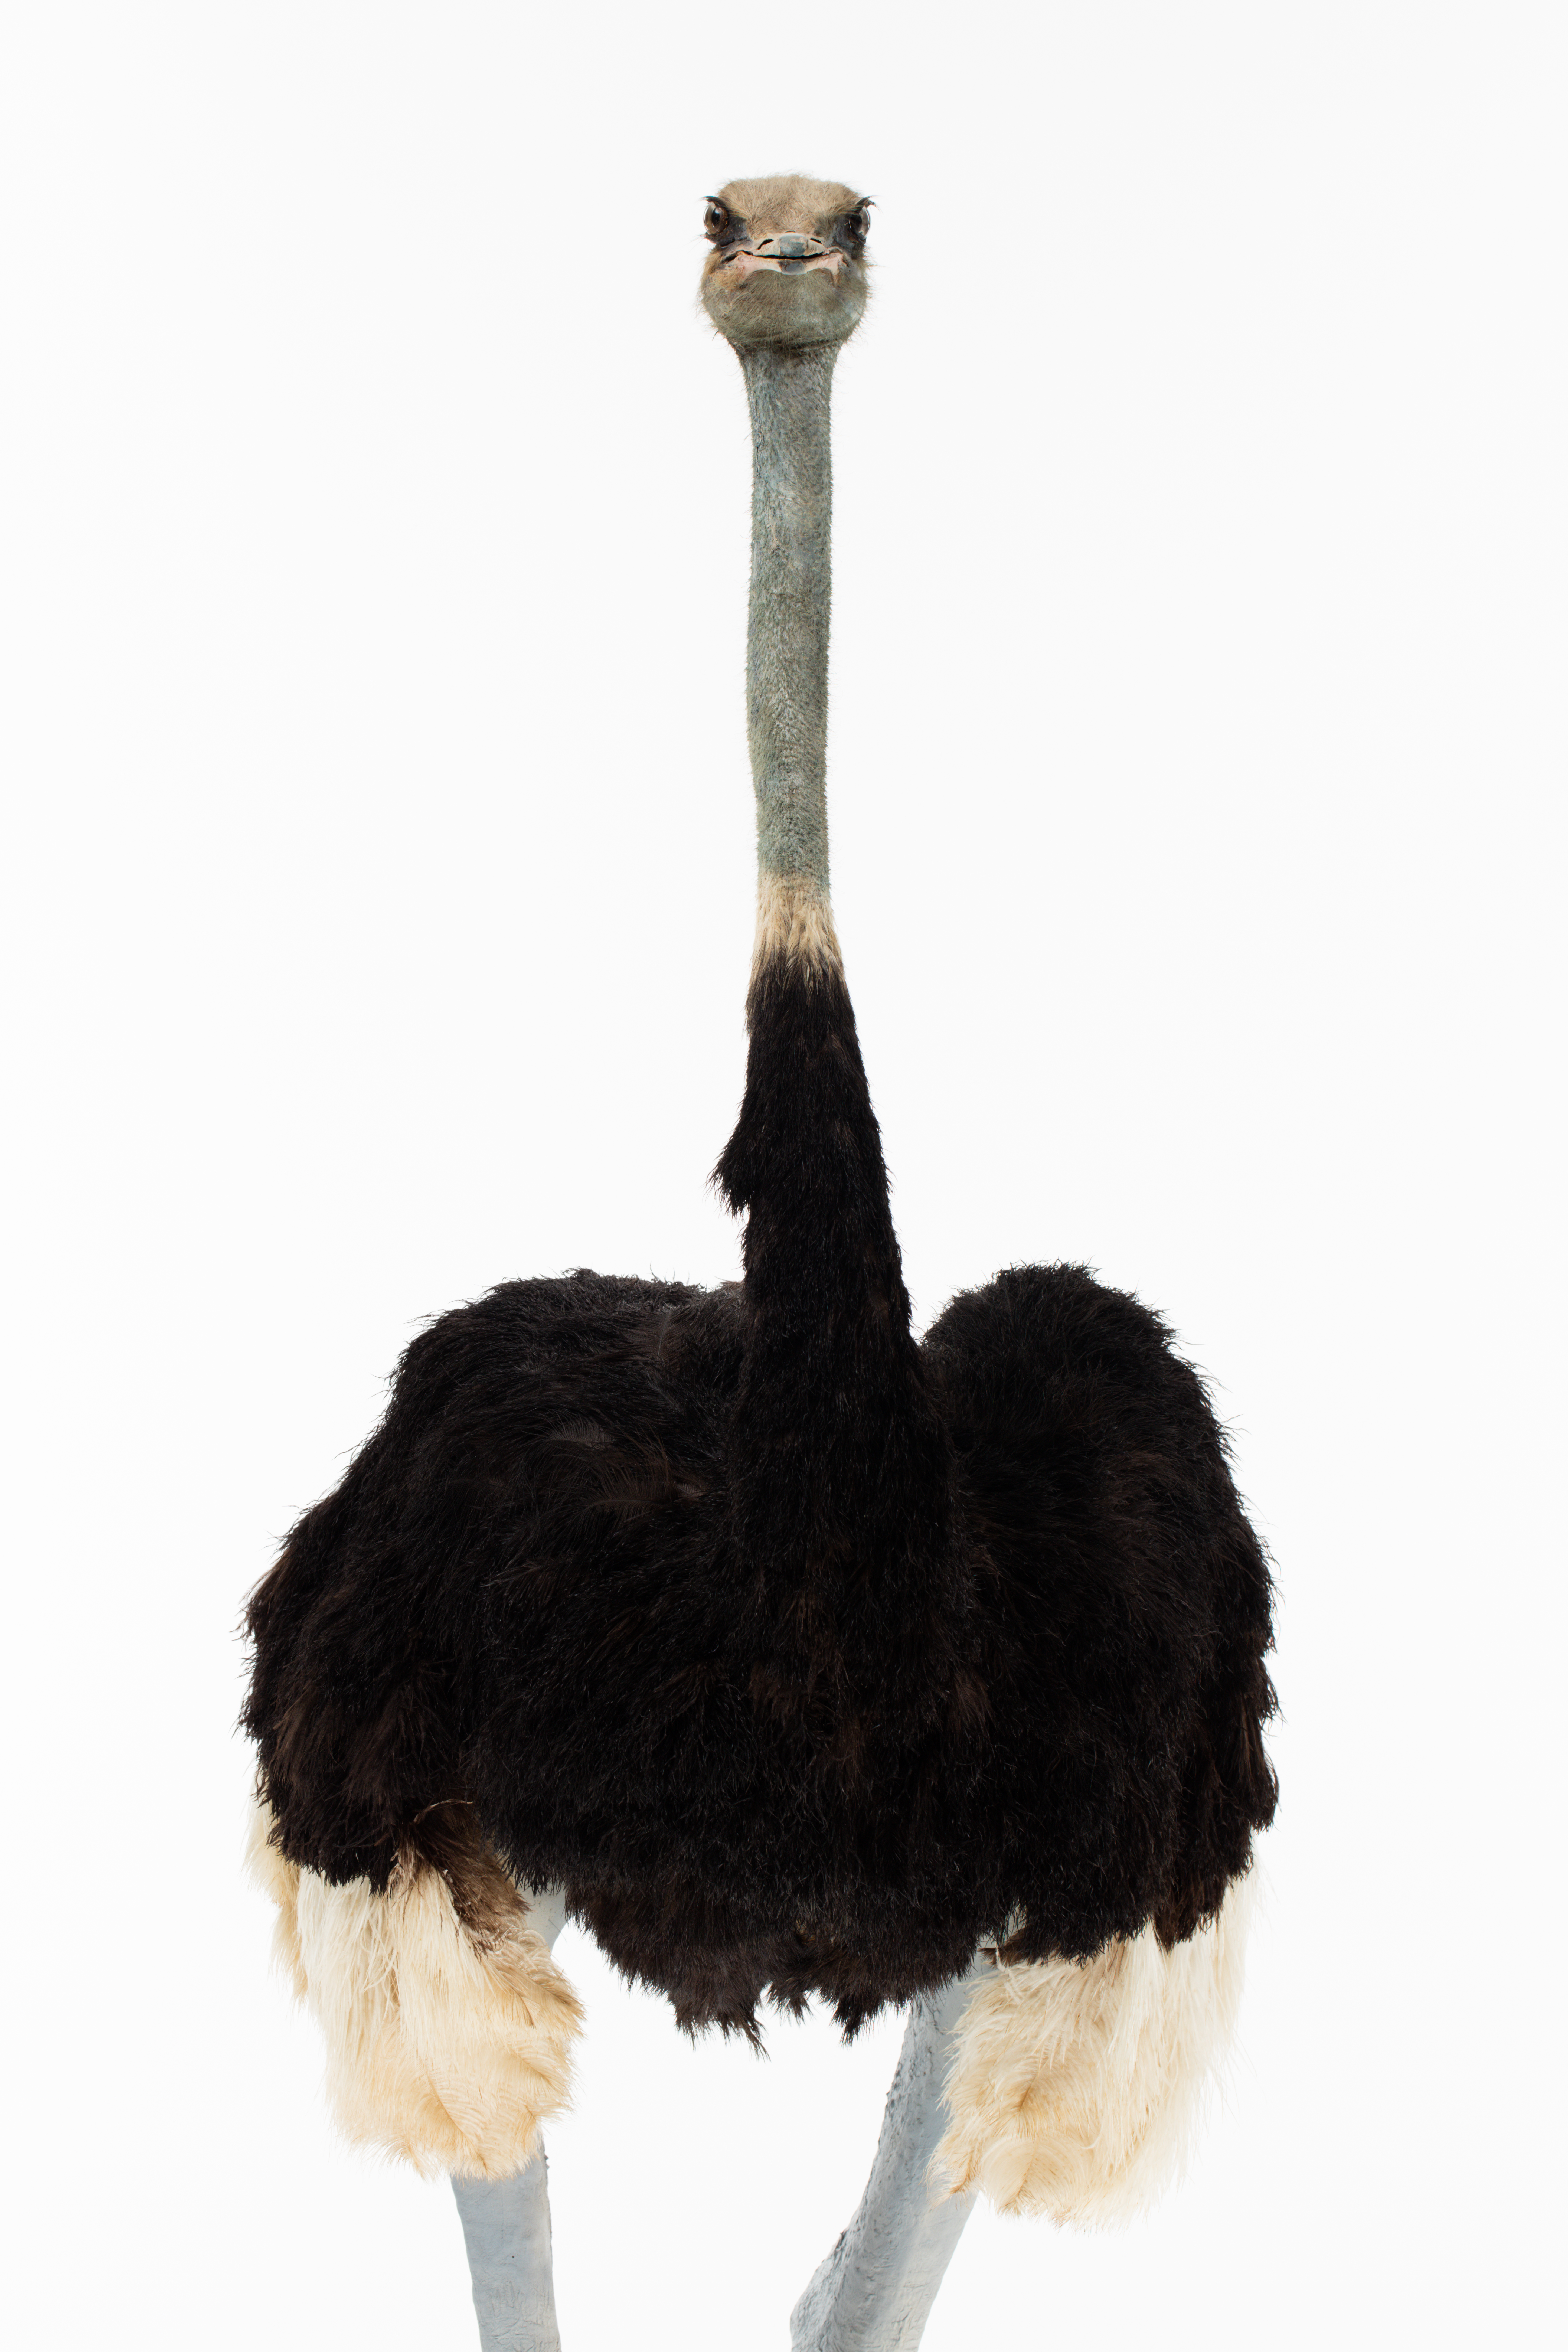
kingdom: Animalia
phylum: Chordata
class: Aves
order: Struthioniformes
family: Struthionidae
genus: Struthio
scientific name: Struthio camelus
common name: Common ostrich
